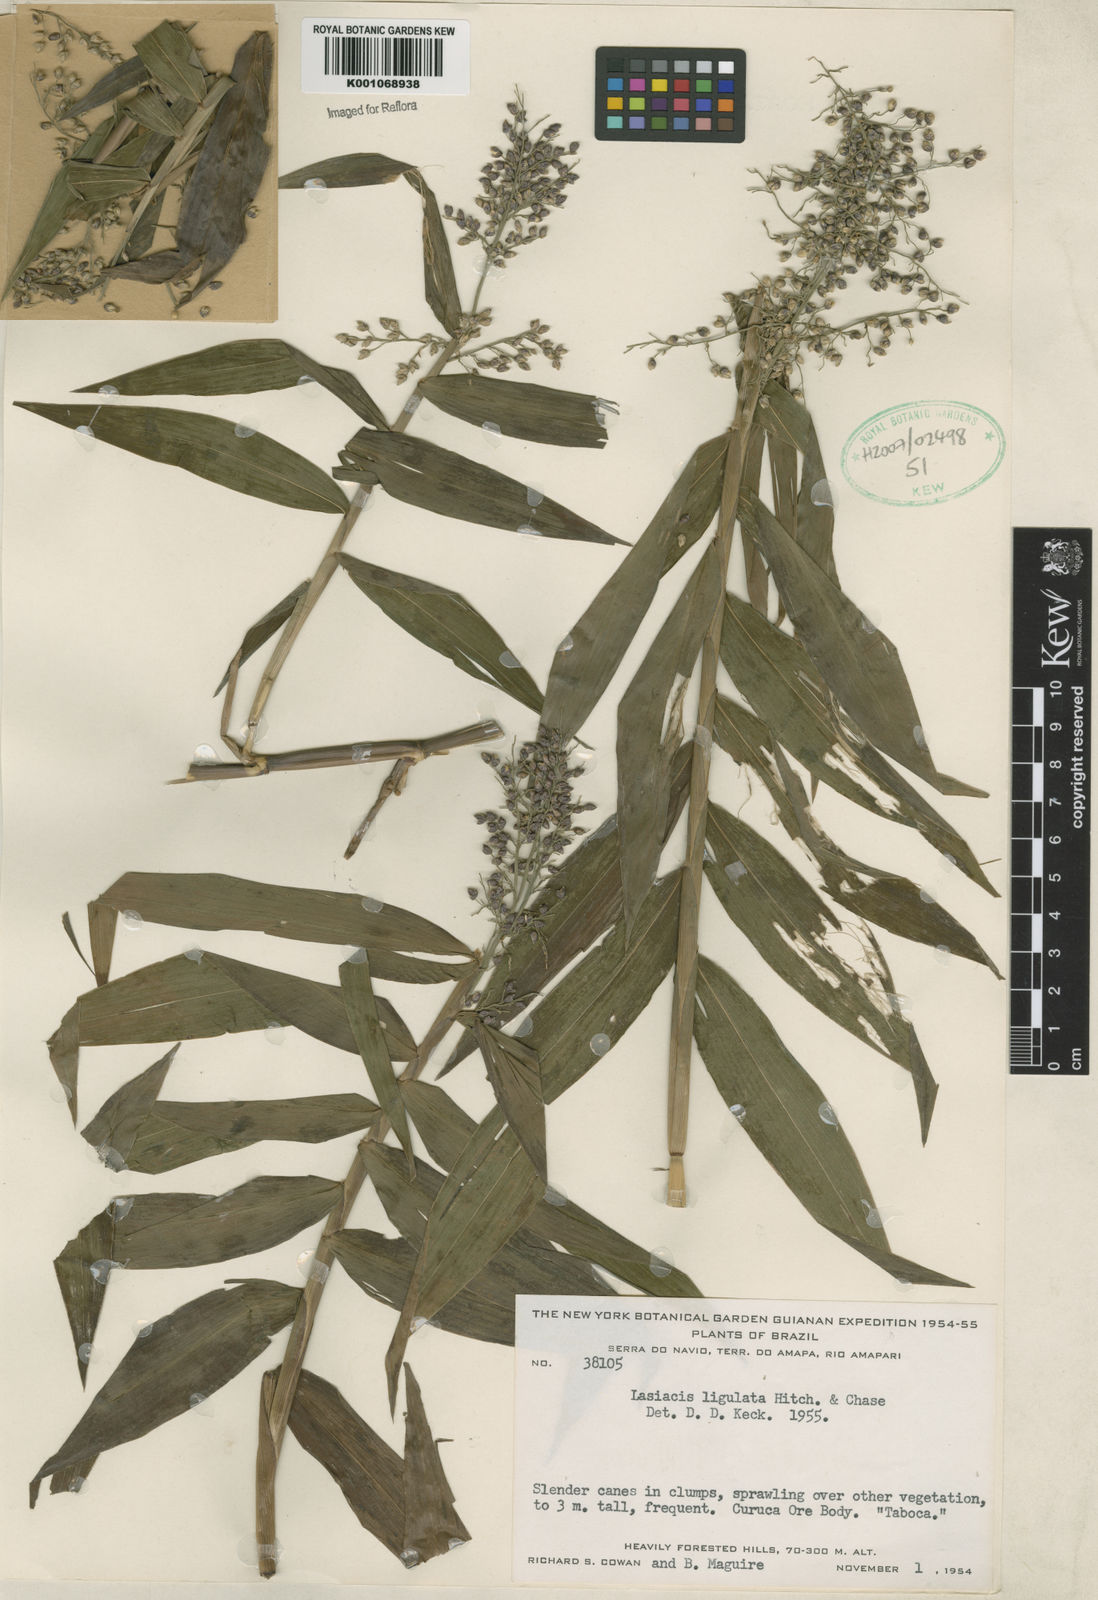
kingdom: Plantae
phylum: Tracheophyta
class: Liliopsida
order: Poales
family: Poaceae
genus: Lasiacis
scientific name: Lasiacis ligulata
